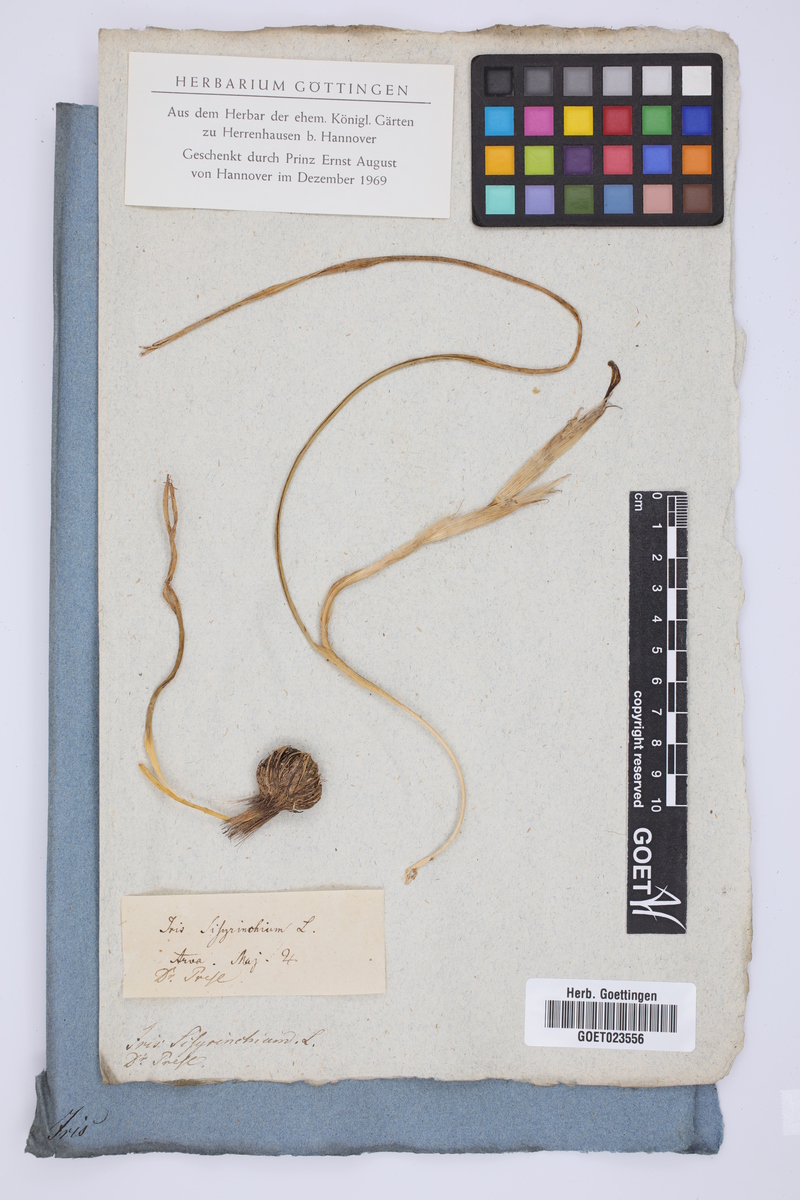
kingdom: Plantae
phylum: Tracheophyta
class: Liliopsida
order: Asparagales
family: Iridaceae
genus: Moraea
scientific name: Moraea sisyrinchium
